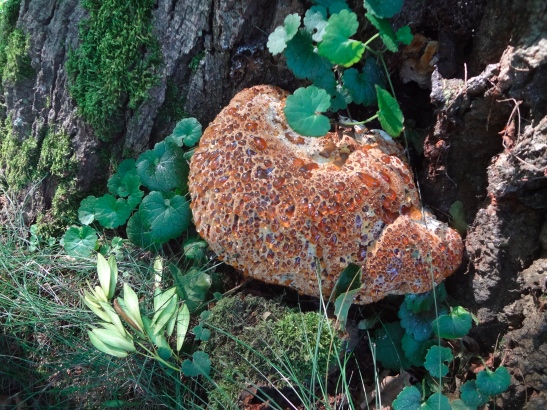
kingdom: Fungi
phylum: Basidiomycota
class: Agaricomycetes
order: Hymenochaetales
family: Hymenochaetaceae
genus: Pseudoinonotus
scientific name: Pseudoinonotus dryadeus
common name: ege-spejlporesvamp
